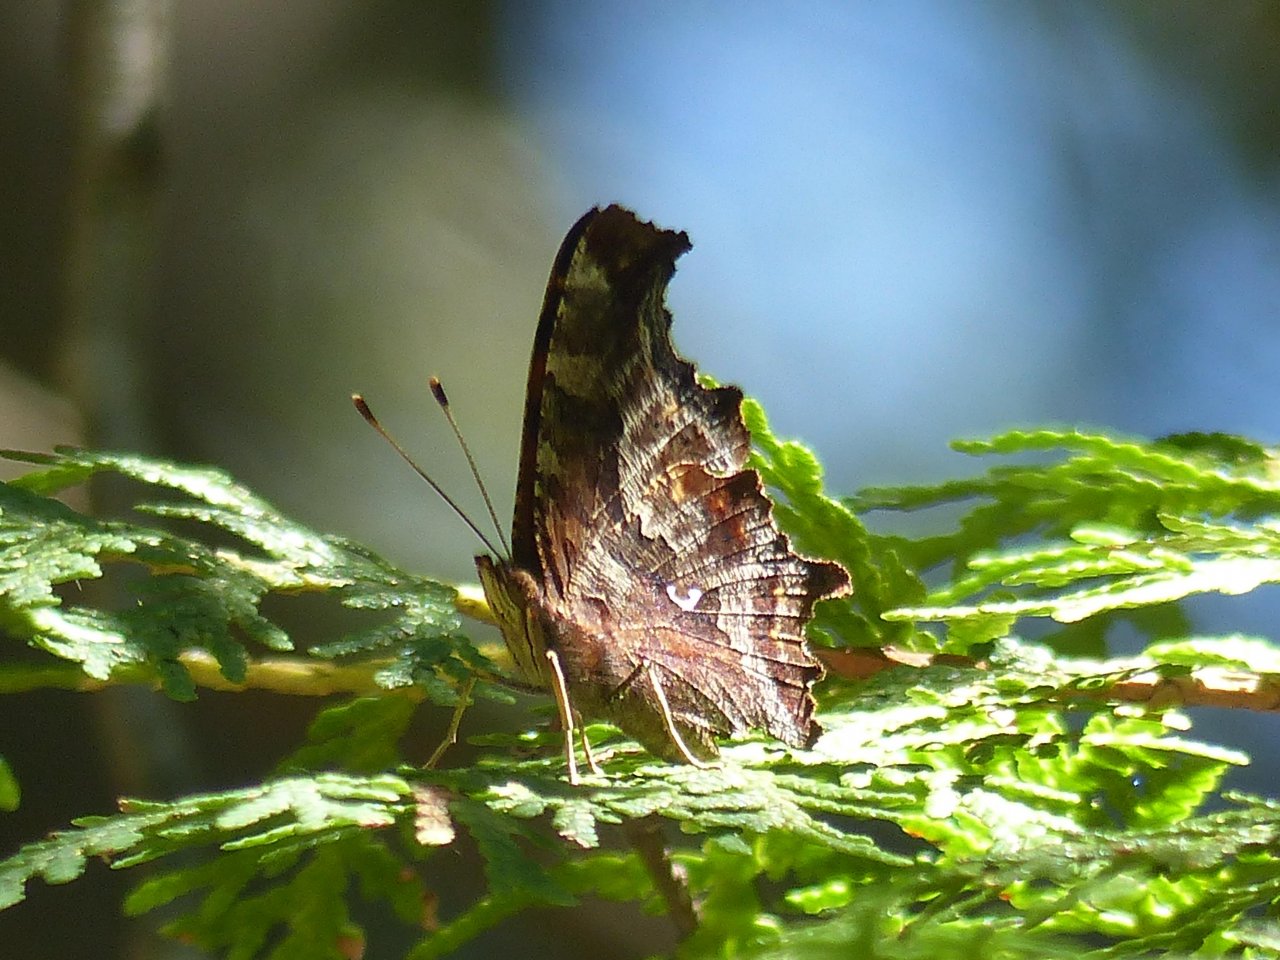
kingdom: Animalia
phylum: Arthropoda
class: Insecta
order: Lepidoptera
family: Nymphalidae
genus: Polygonia
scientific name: Polygonia comma
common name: Eastern Comma
